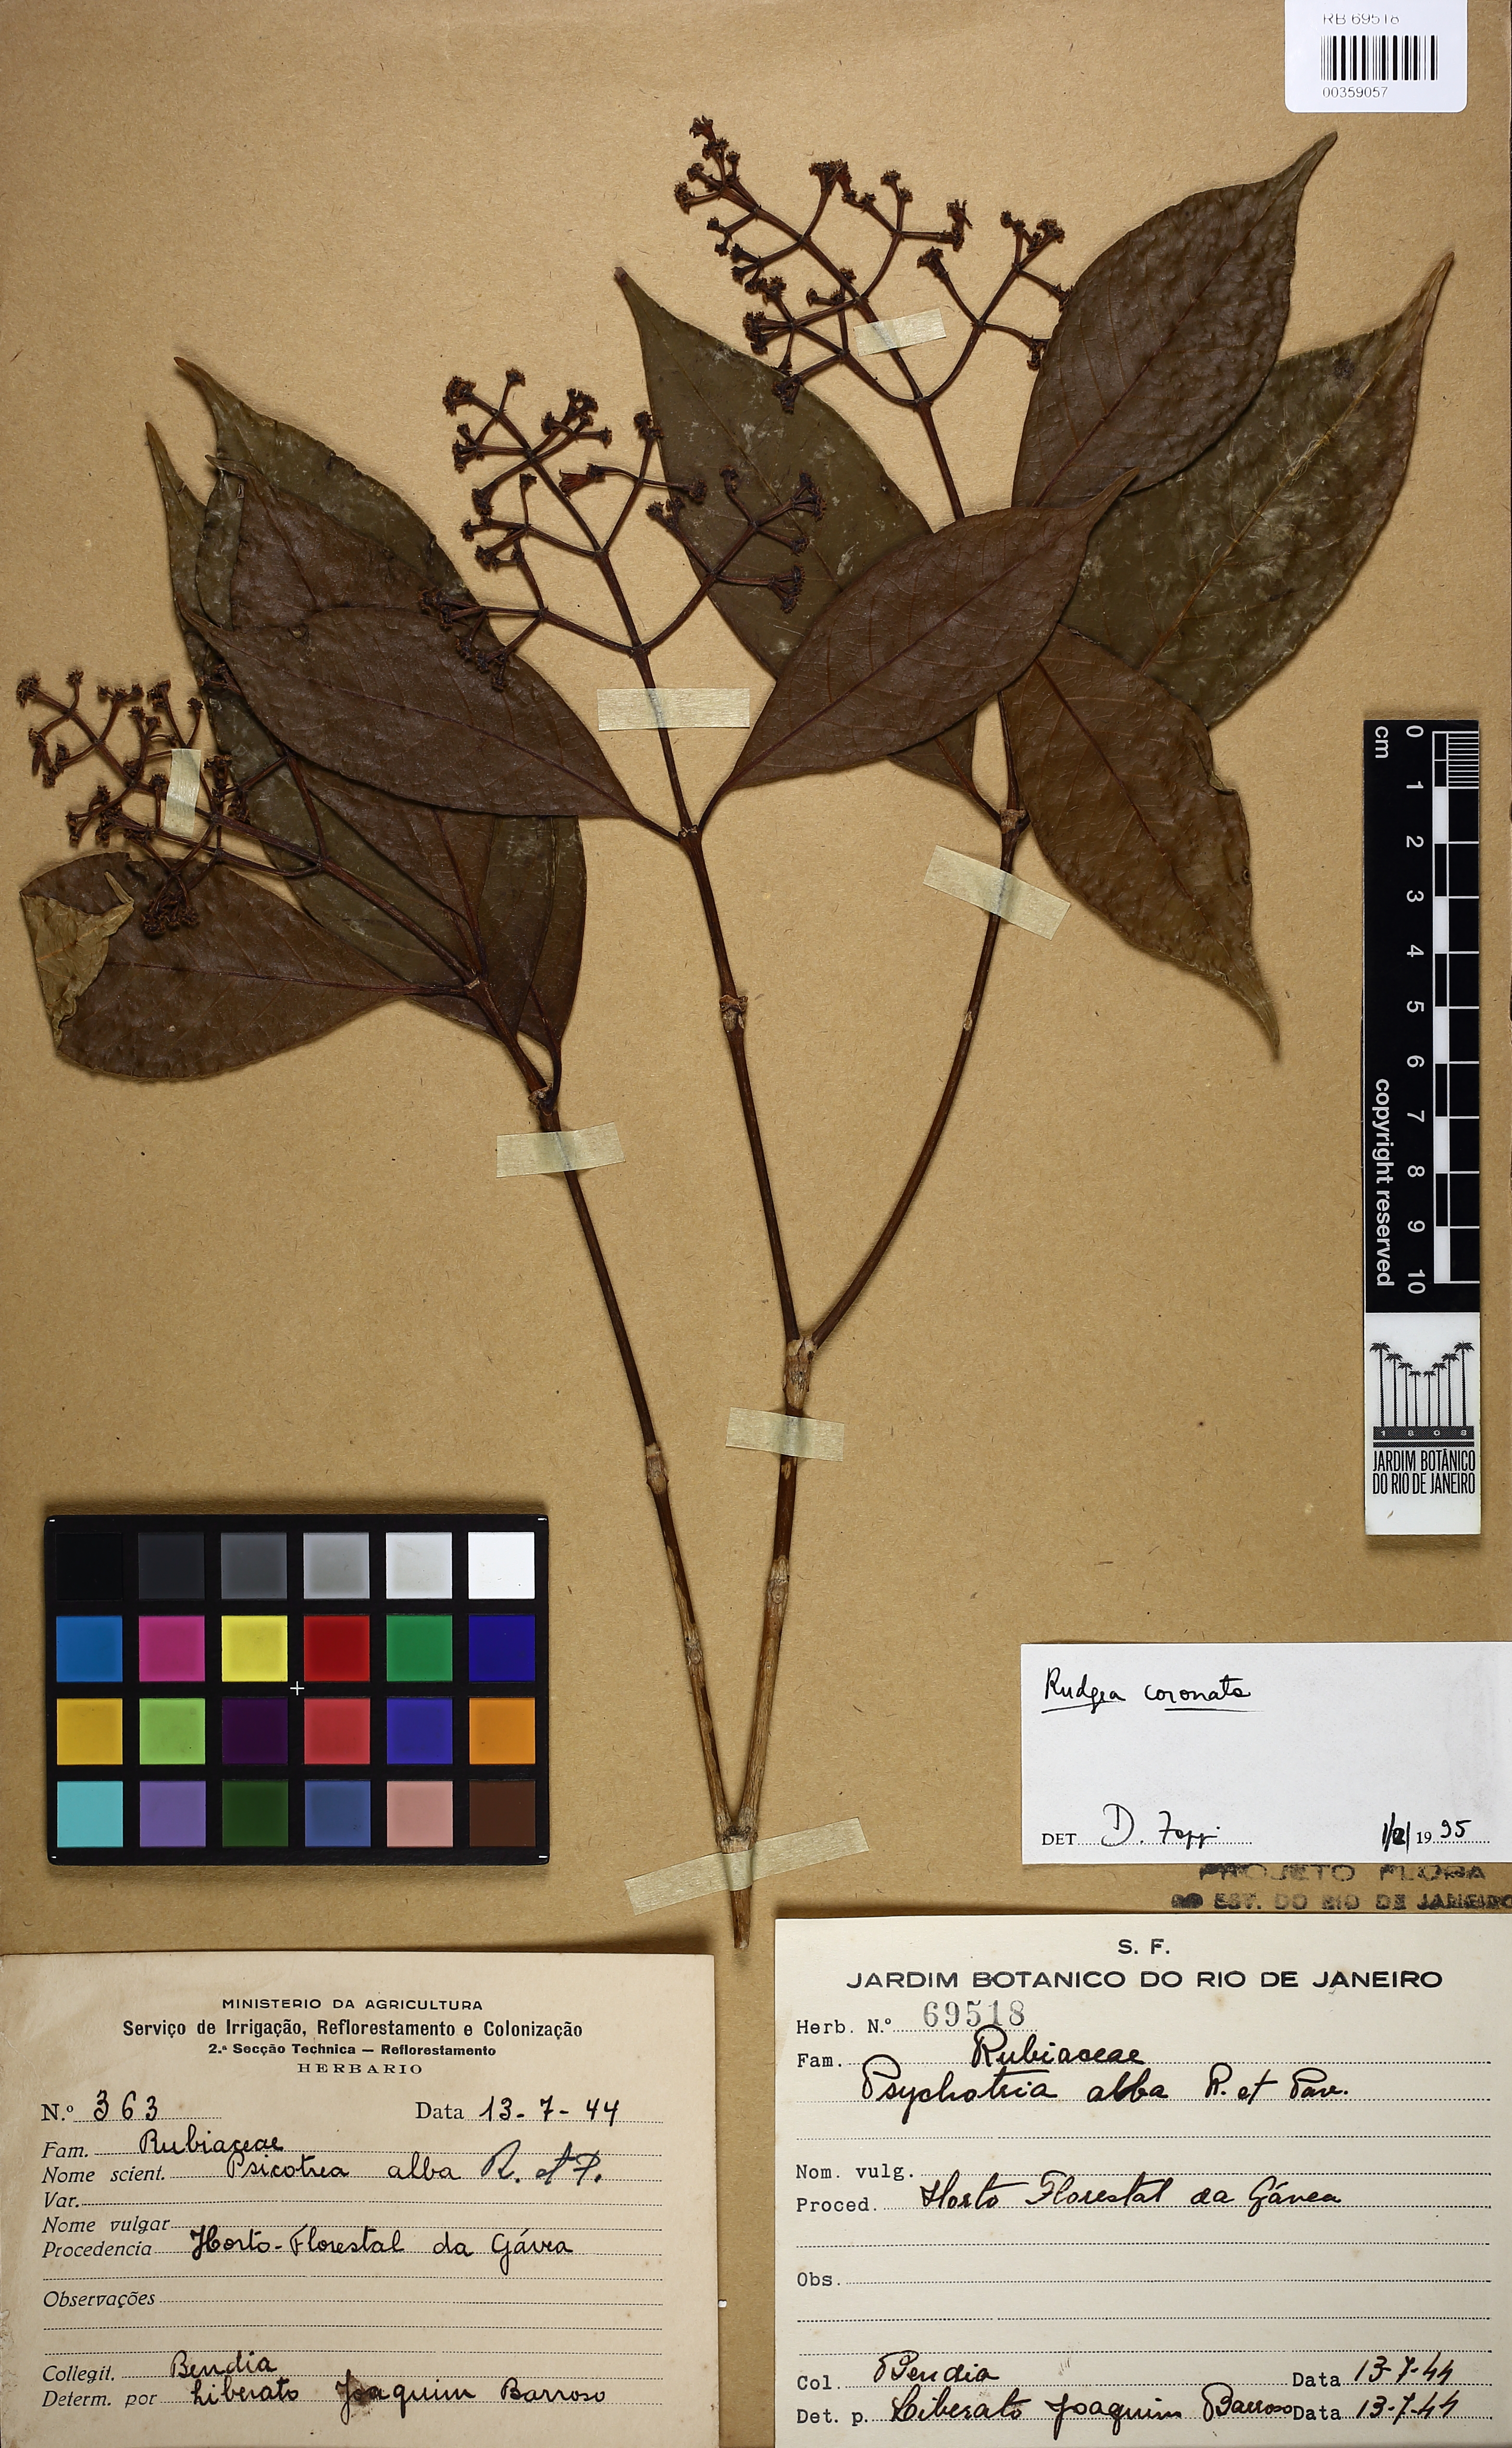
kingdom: Plantae
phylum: Tracheophyta
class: Magnoliopsida
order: Gentianales
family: Rubiaceae
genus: Rudgea
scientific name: Rudgea coronata
